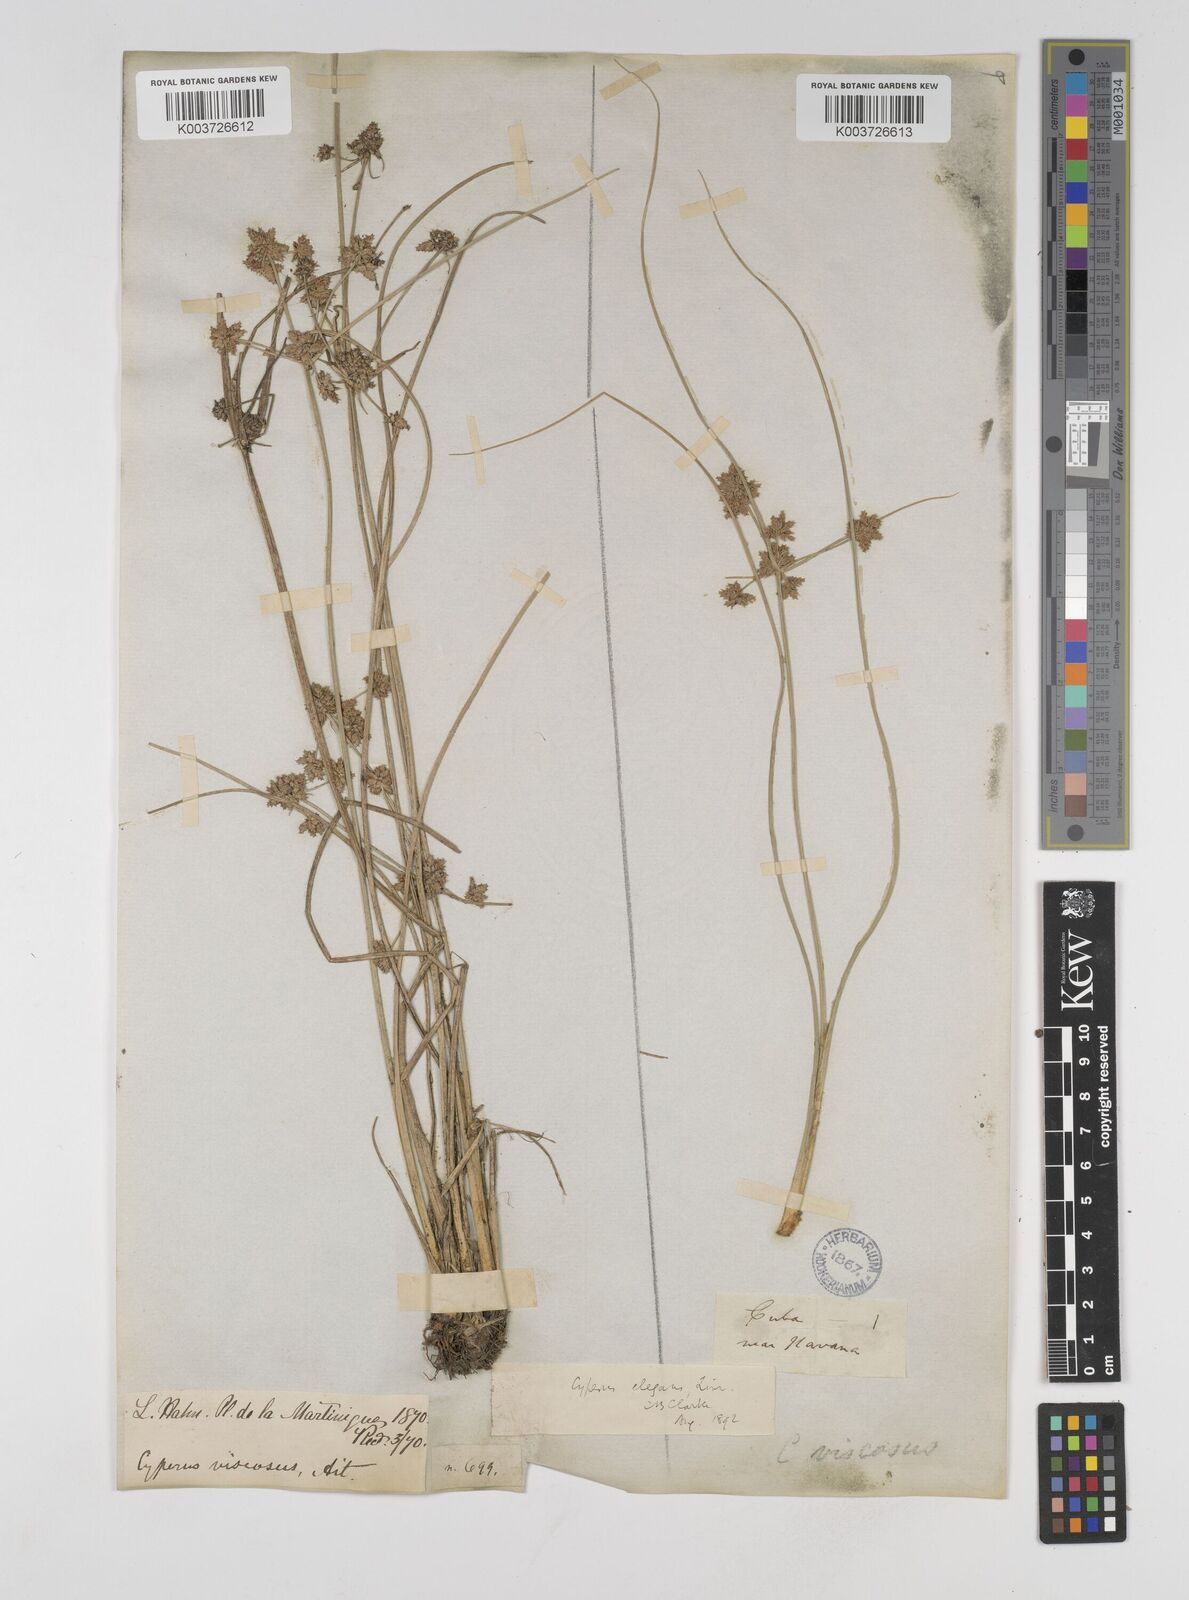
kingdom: Plantae
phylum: Tracheophyta
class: Liliopsida
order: Poales
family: Cyperaceae
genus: Cyperus
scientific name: Cyperus elegans
